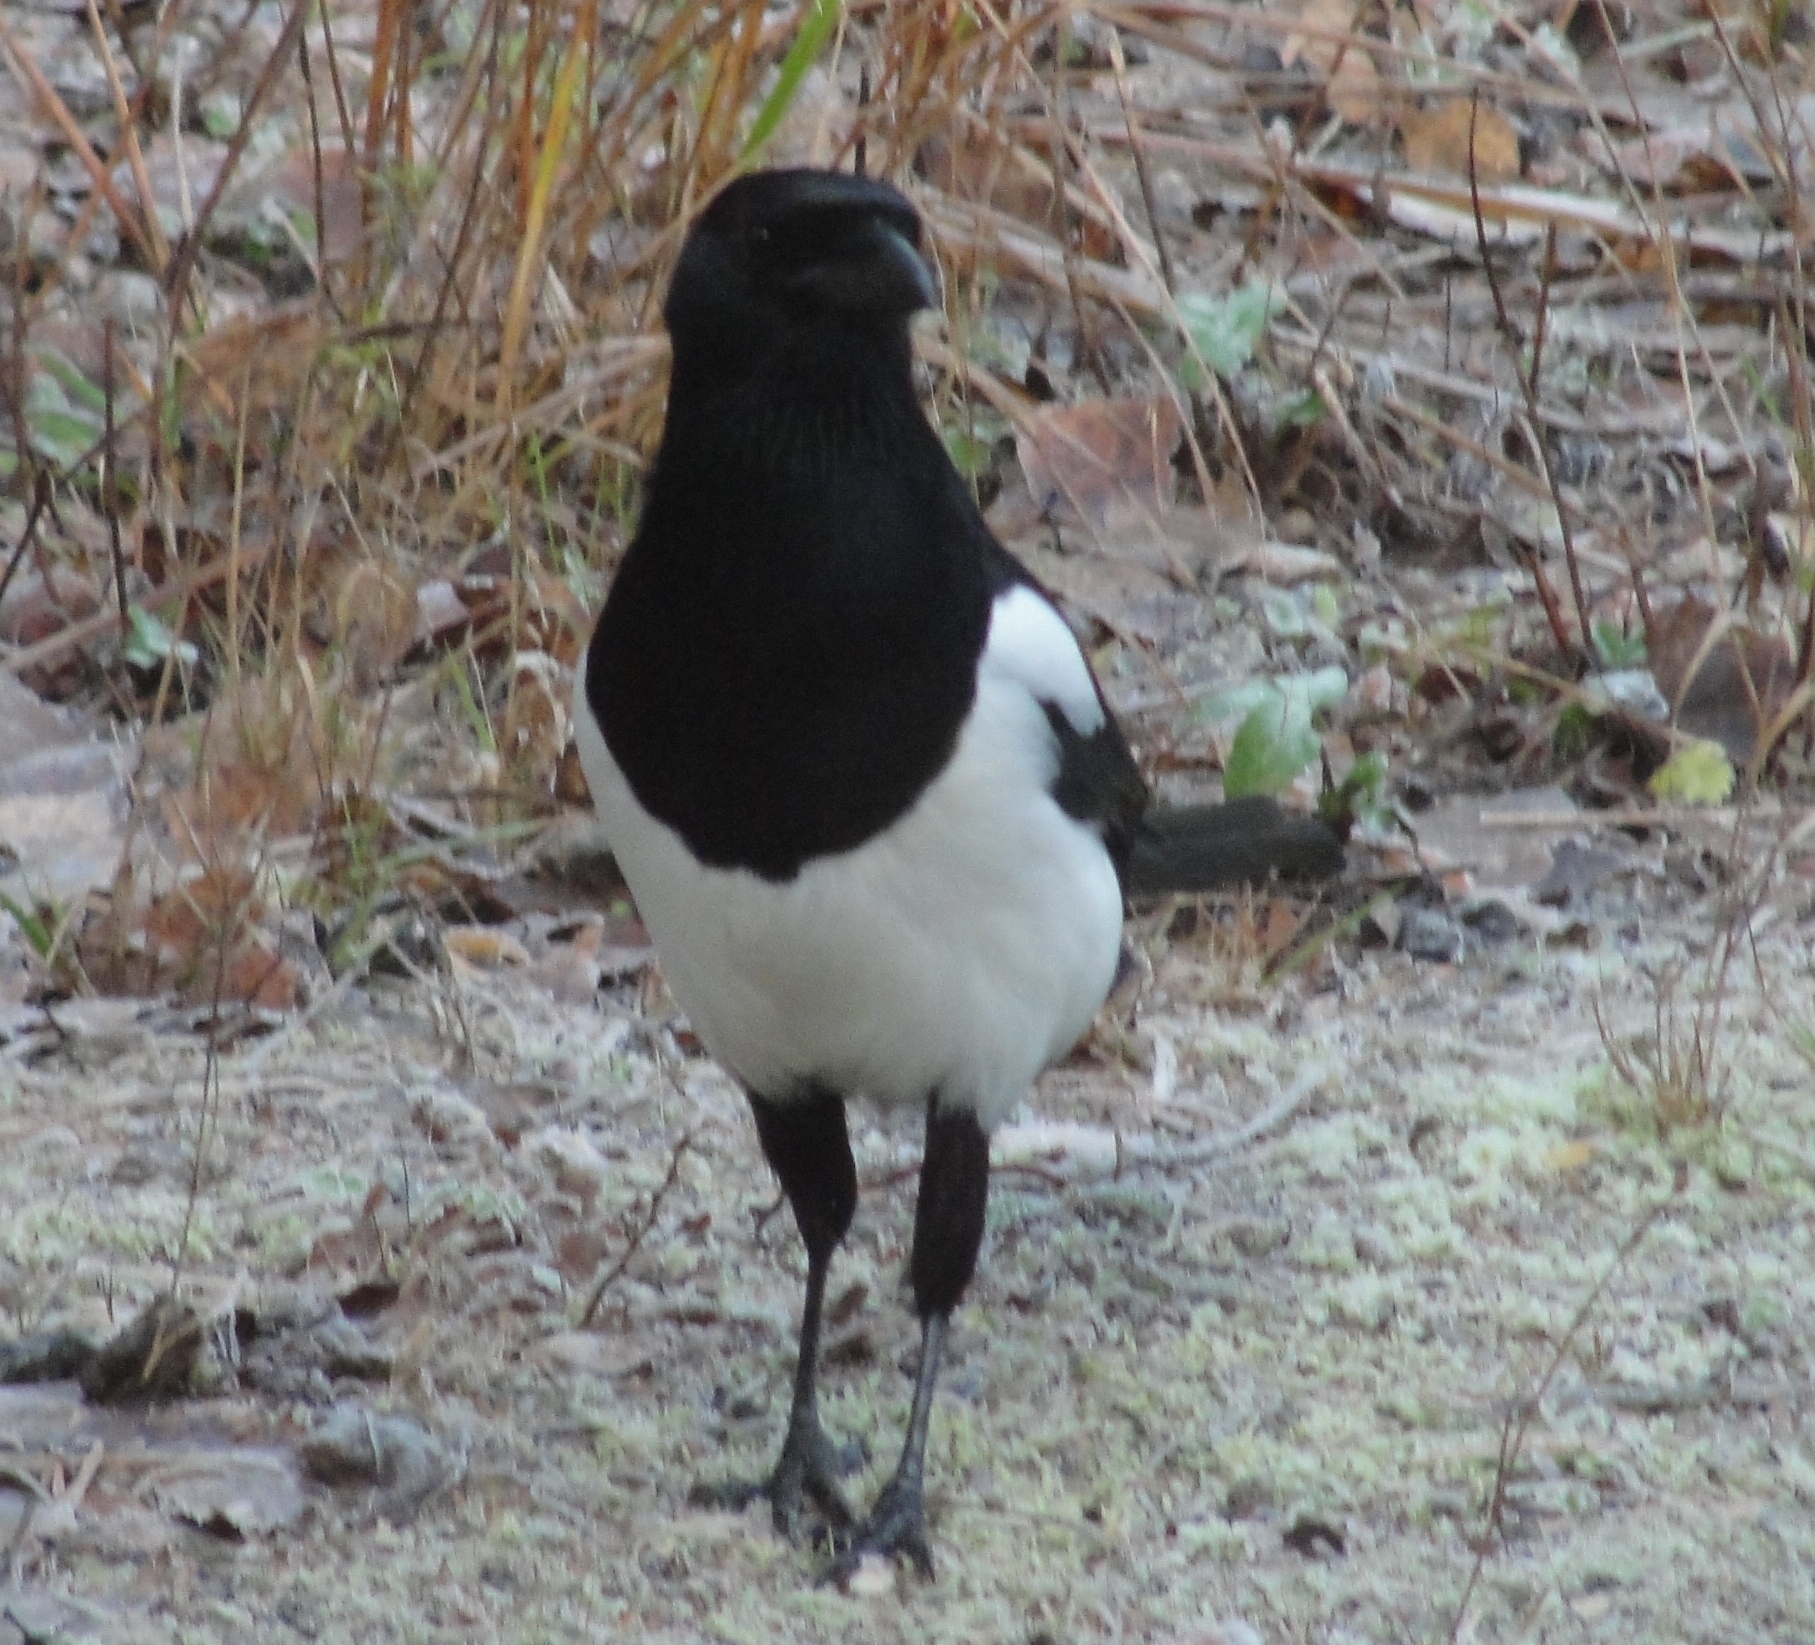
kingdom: Animalia
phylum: Chordata
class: Aves
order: Passeriformes
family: Corvidae
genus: Pica
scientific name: Pica pica
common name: Eurasian magpie
